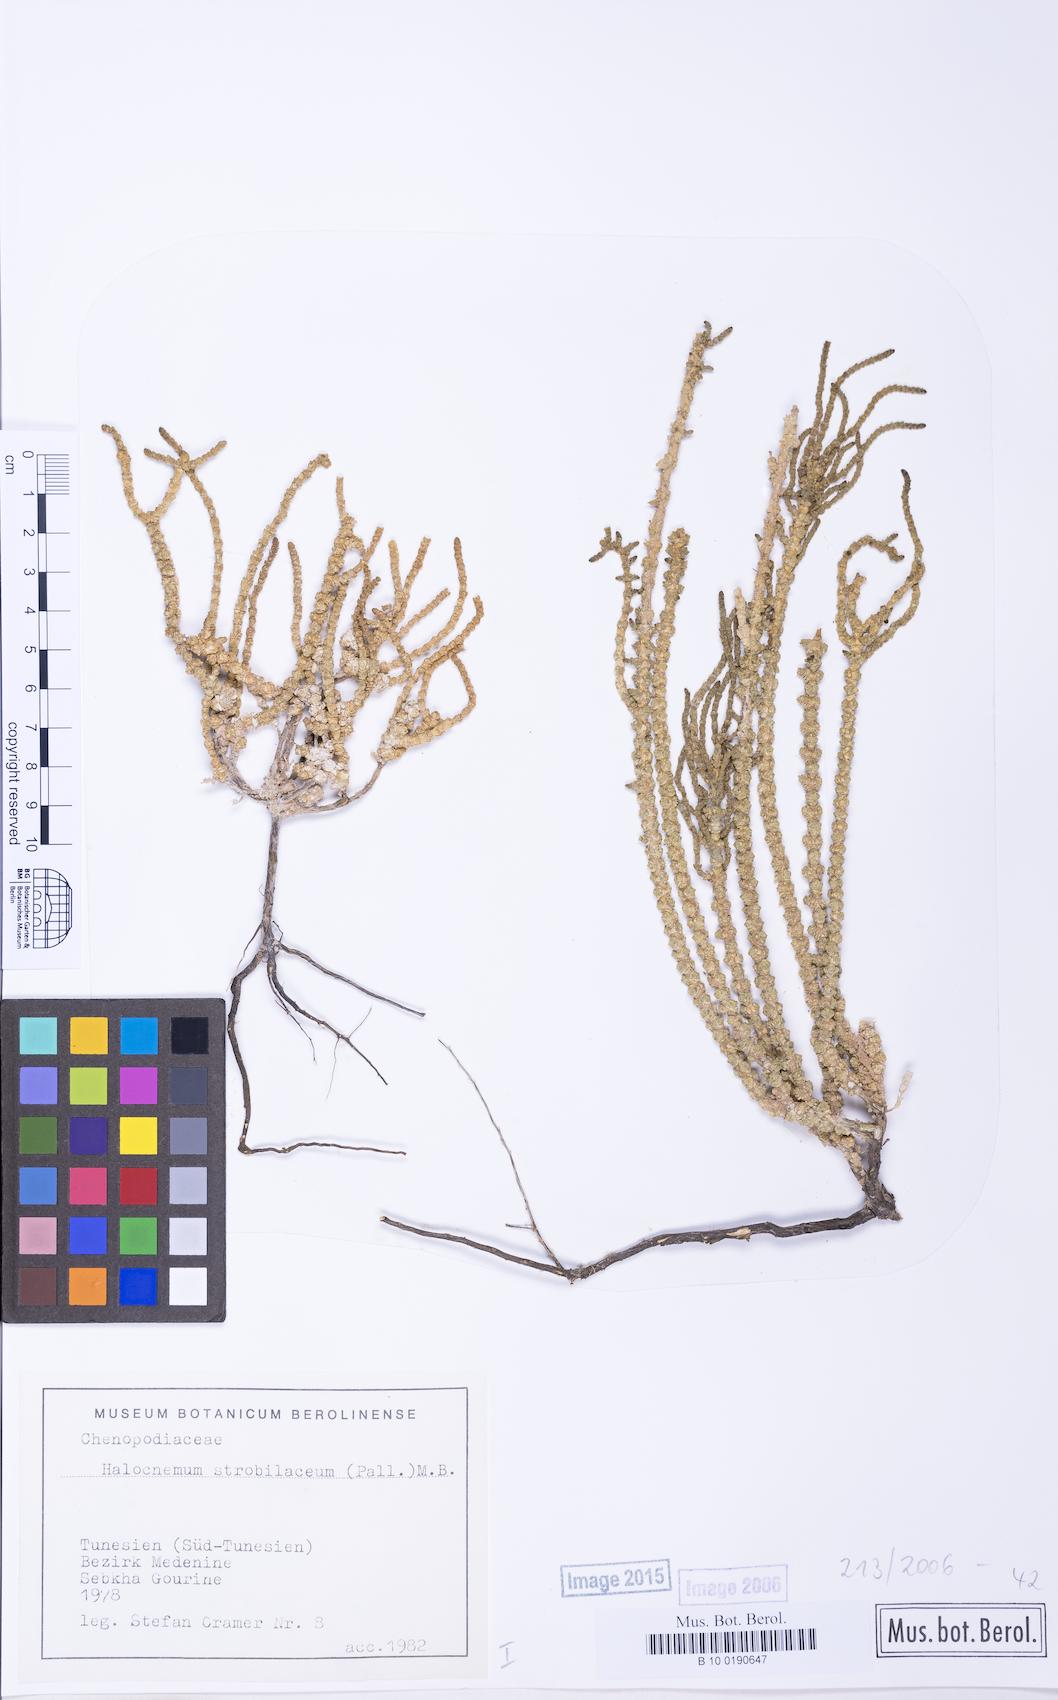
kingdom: Plantae
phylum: Tracheophyta
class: Magnoliopsida
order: Caryophyllales
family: Amaranthaceae
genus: Halocnemum
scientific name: Halocnemum strobilaceum
